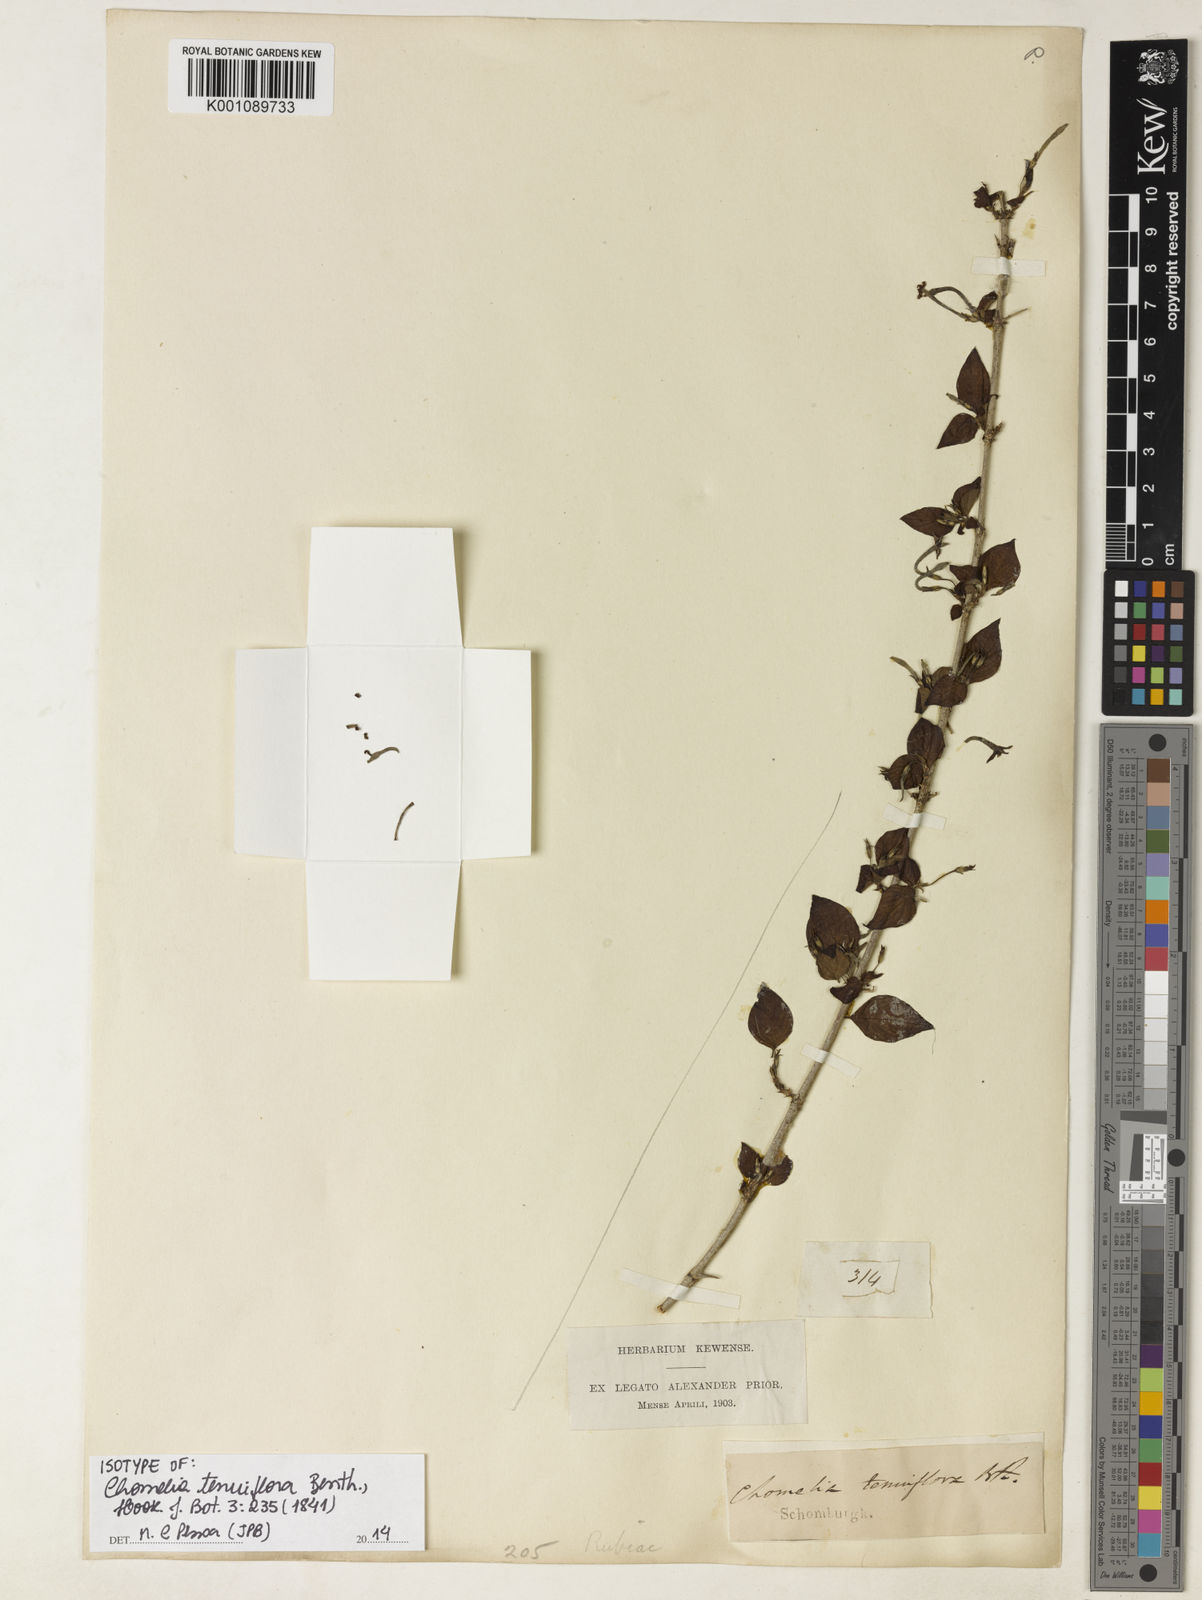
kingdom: Plantae
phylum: Tracheophyta
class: Magnoliopsida
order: Gentianales
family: Rubiaceae
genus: Chomelia
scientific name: Chomelia tenuiflora
